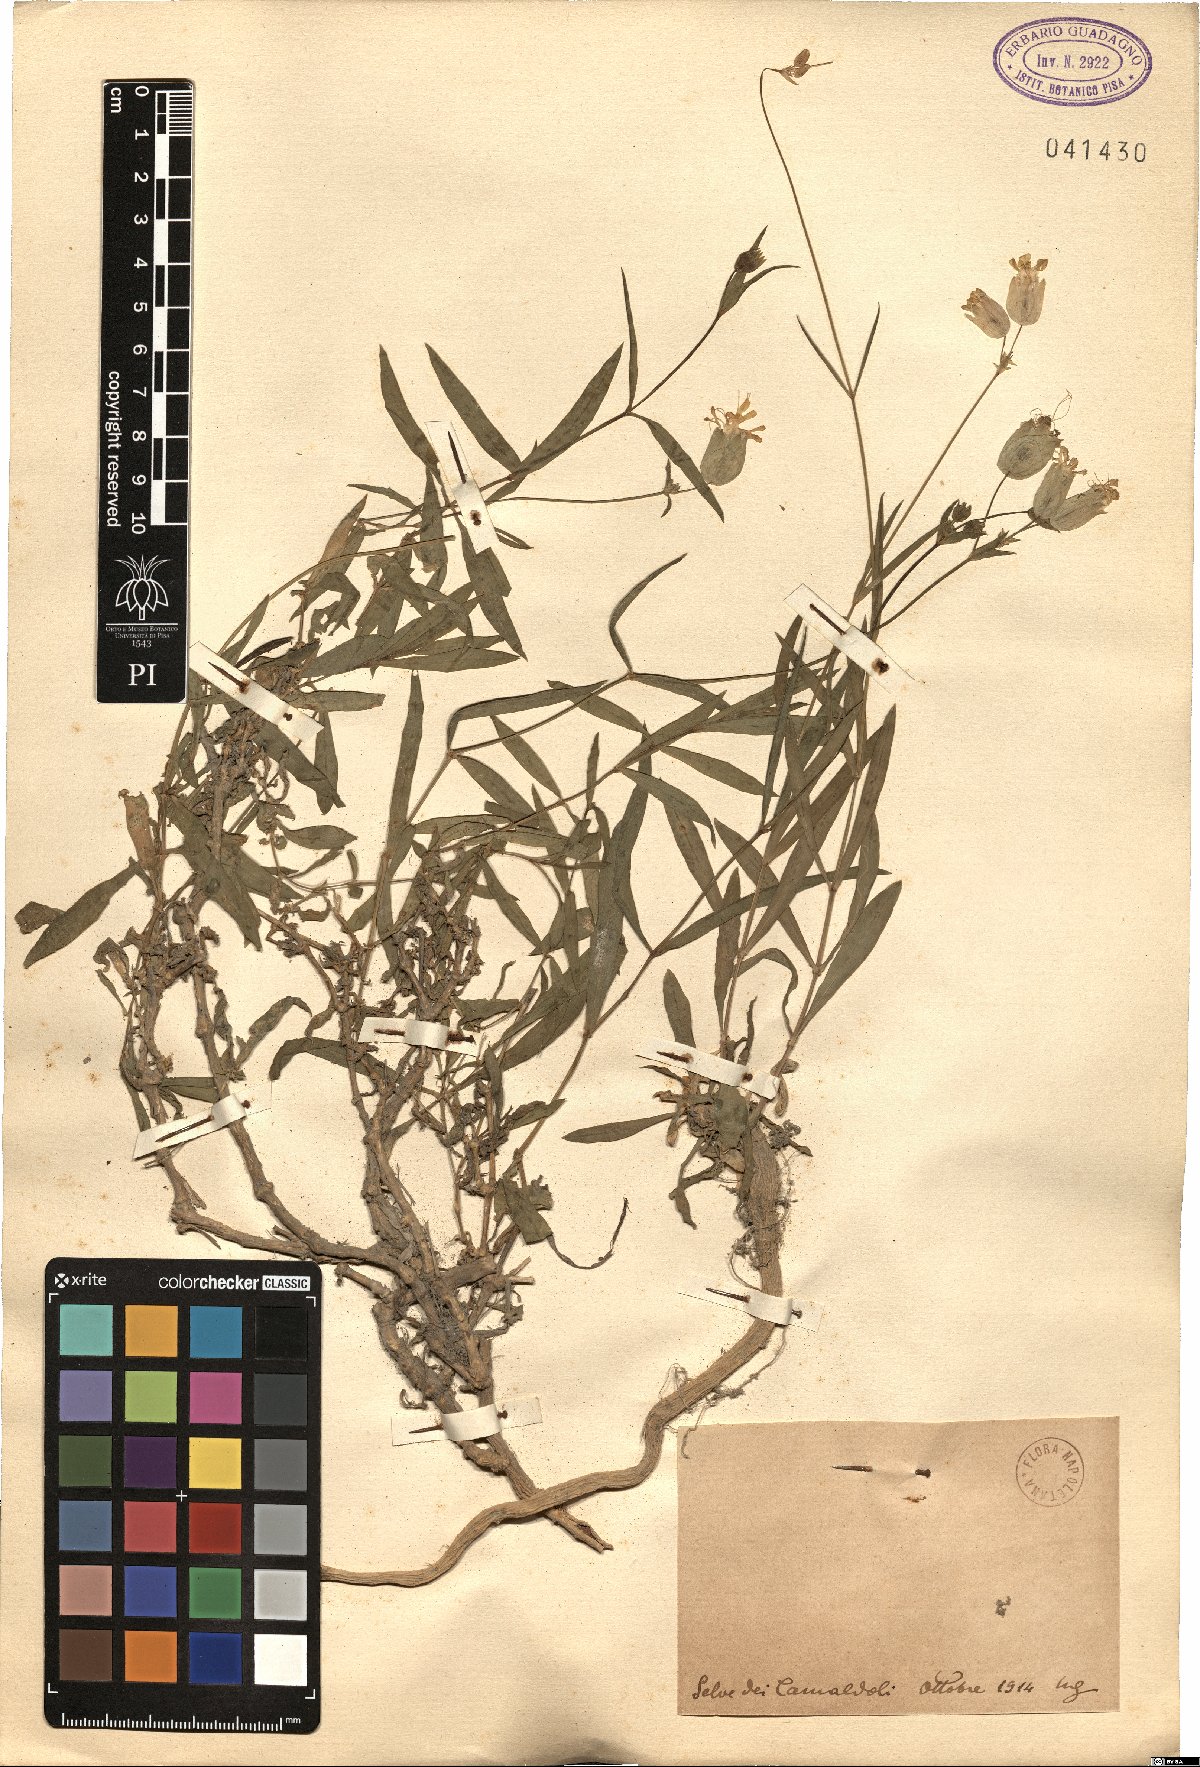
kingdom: Plantae
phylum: Tracheophyta
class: Magnoliopsida
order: Caryophyllales
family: Caryophyllaceae
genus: Silene
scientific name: Silene
